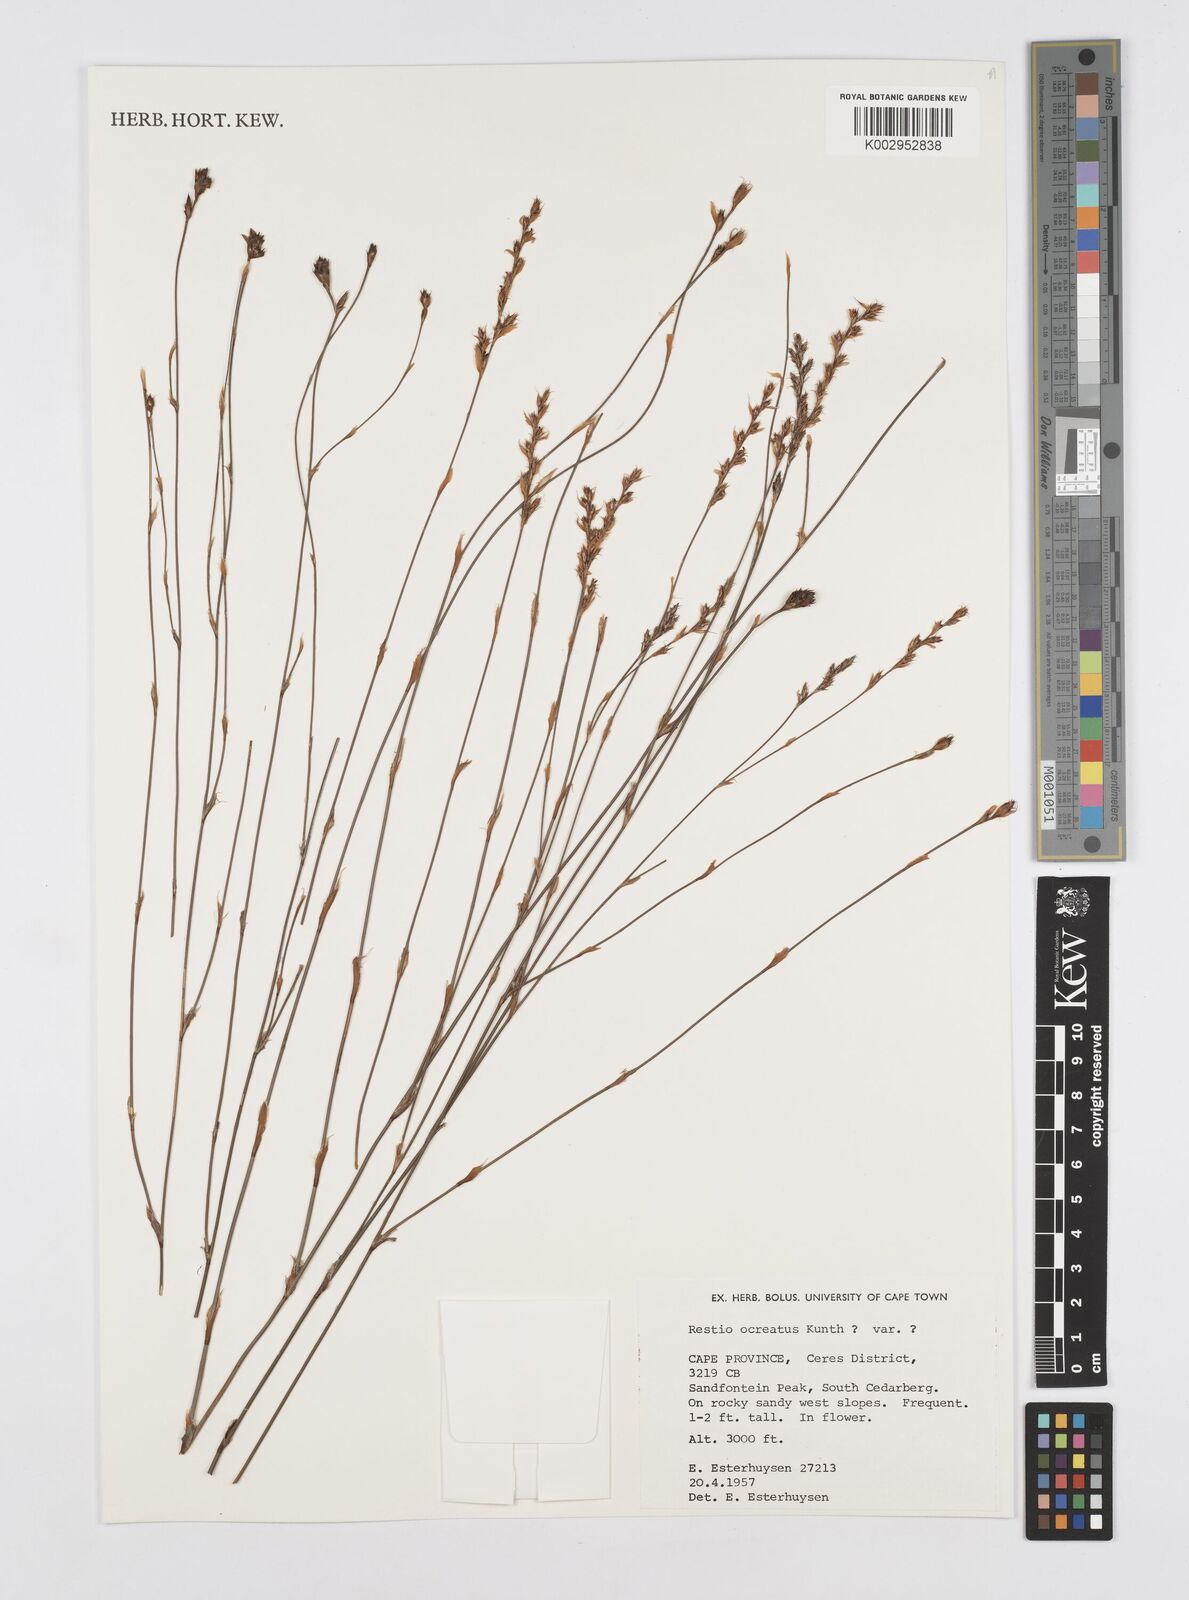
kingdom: Plantae
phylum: Tracheophyta
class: Liliopsida
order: Poales
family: Restionaceae
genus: Restio
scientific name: Restio ocreatus
